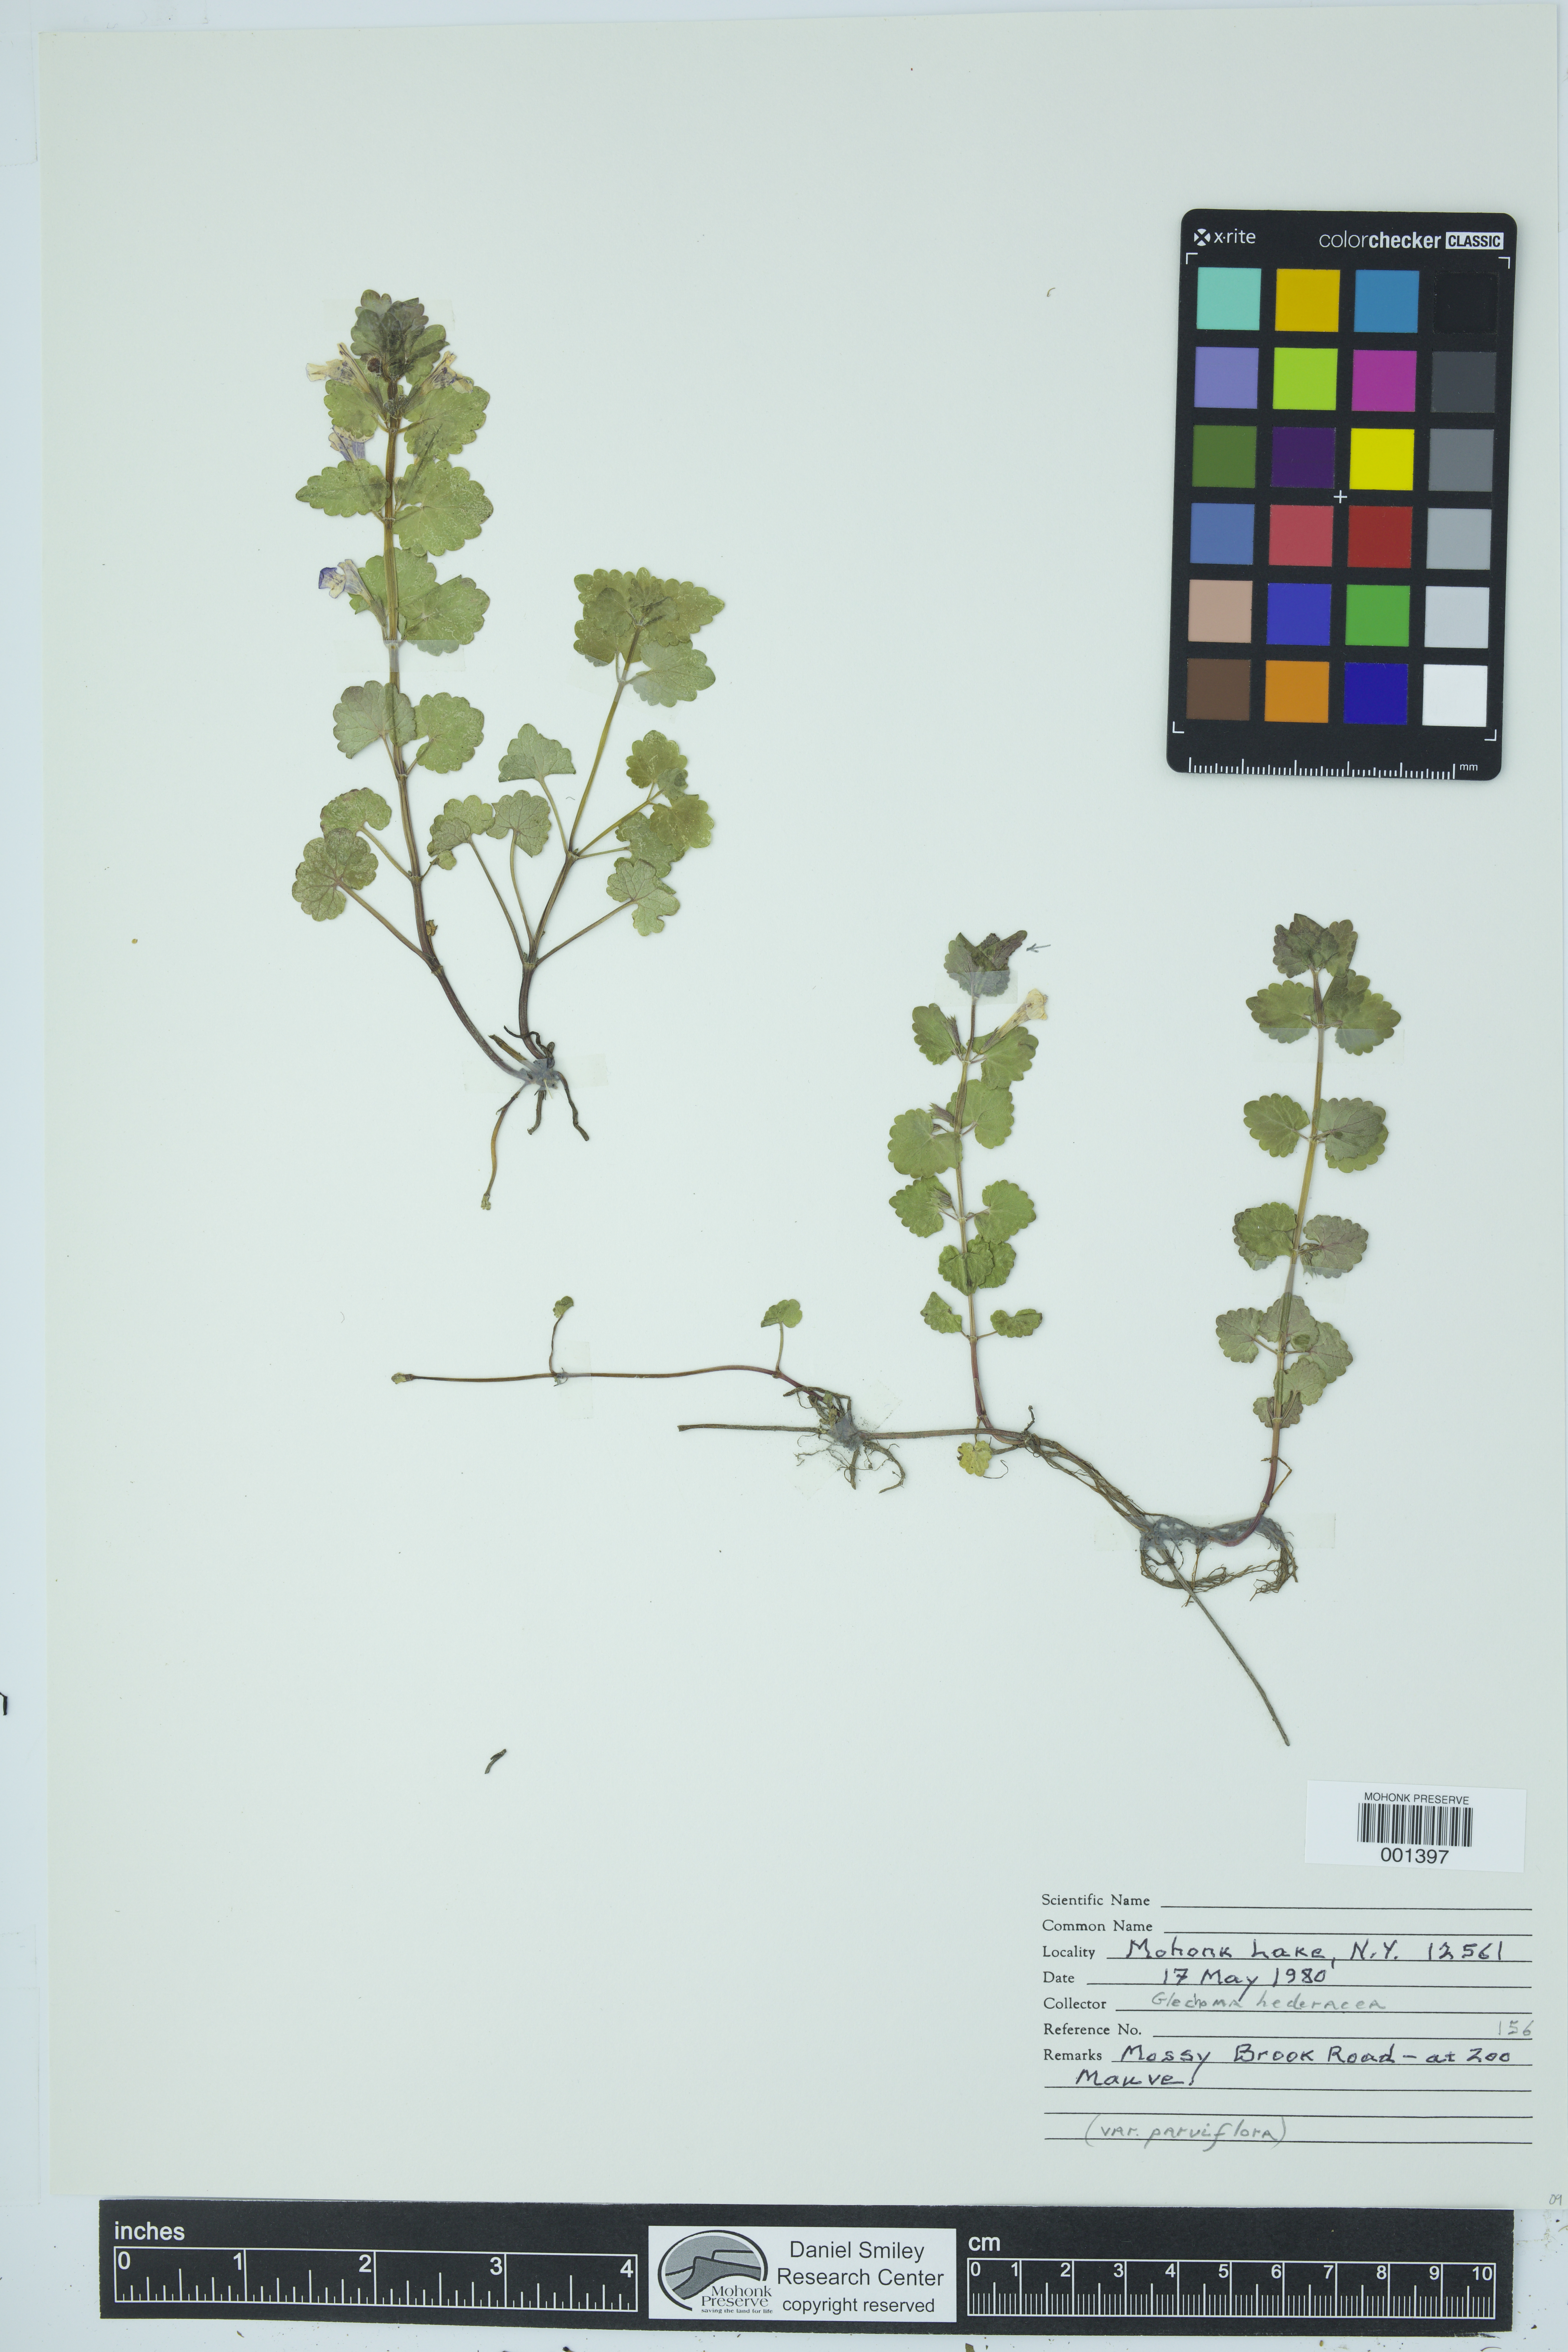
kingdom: Plantae
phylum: Tracheophyta
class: Magnoliopsida
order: Lamiales
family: Lamiaceae
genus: Glechoma
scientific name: Glechoma hederacea
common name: Ground ivy
